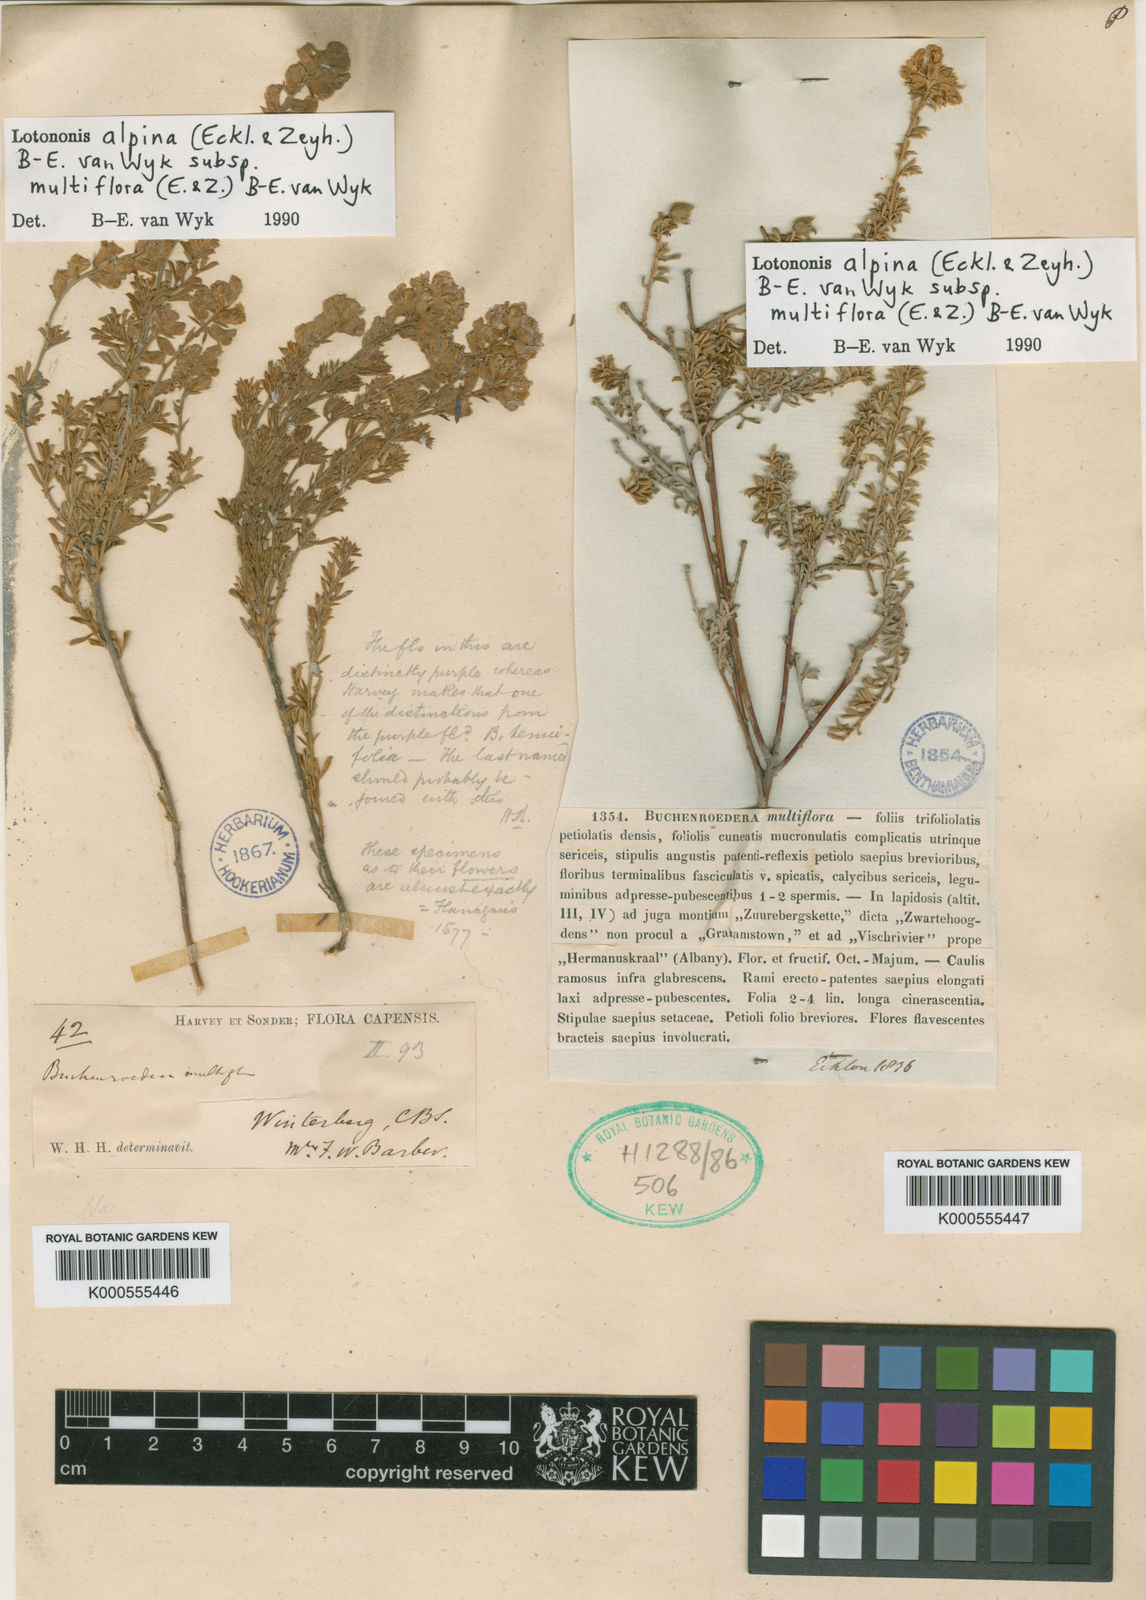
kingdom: Plantae
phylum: Tracheophyta
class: Magnoliopsida
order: Fabales
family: Fabaceae
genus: Lotononis
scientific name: Lotononis alpina
